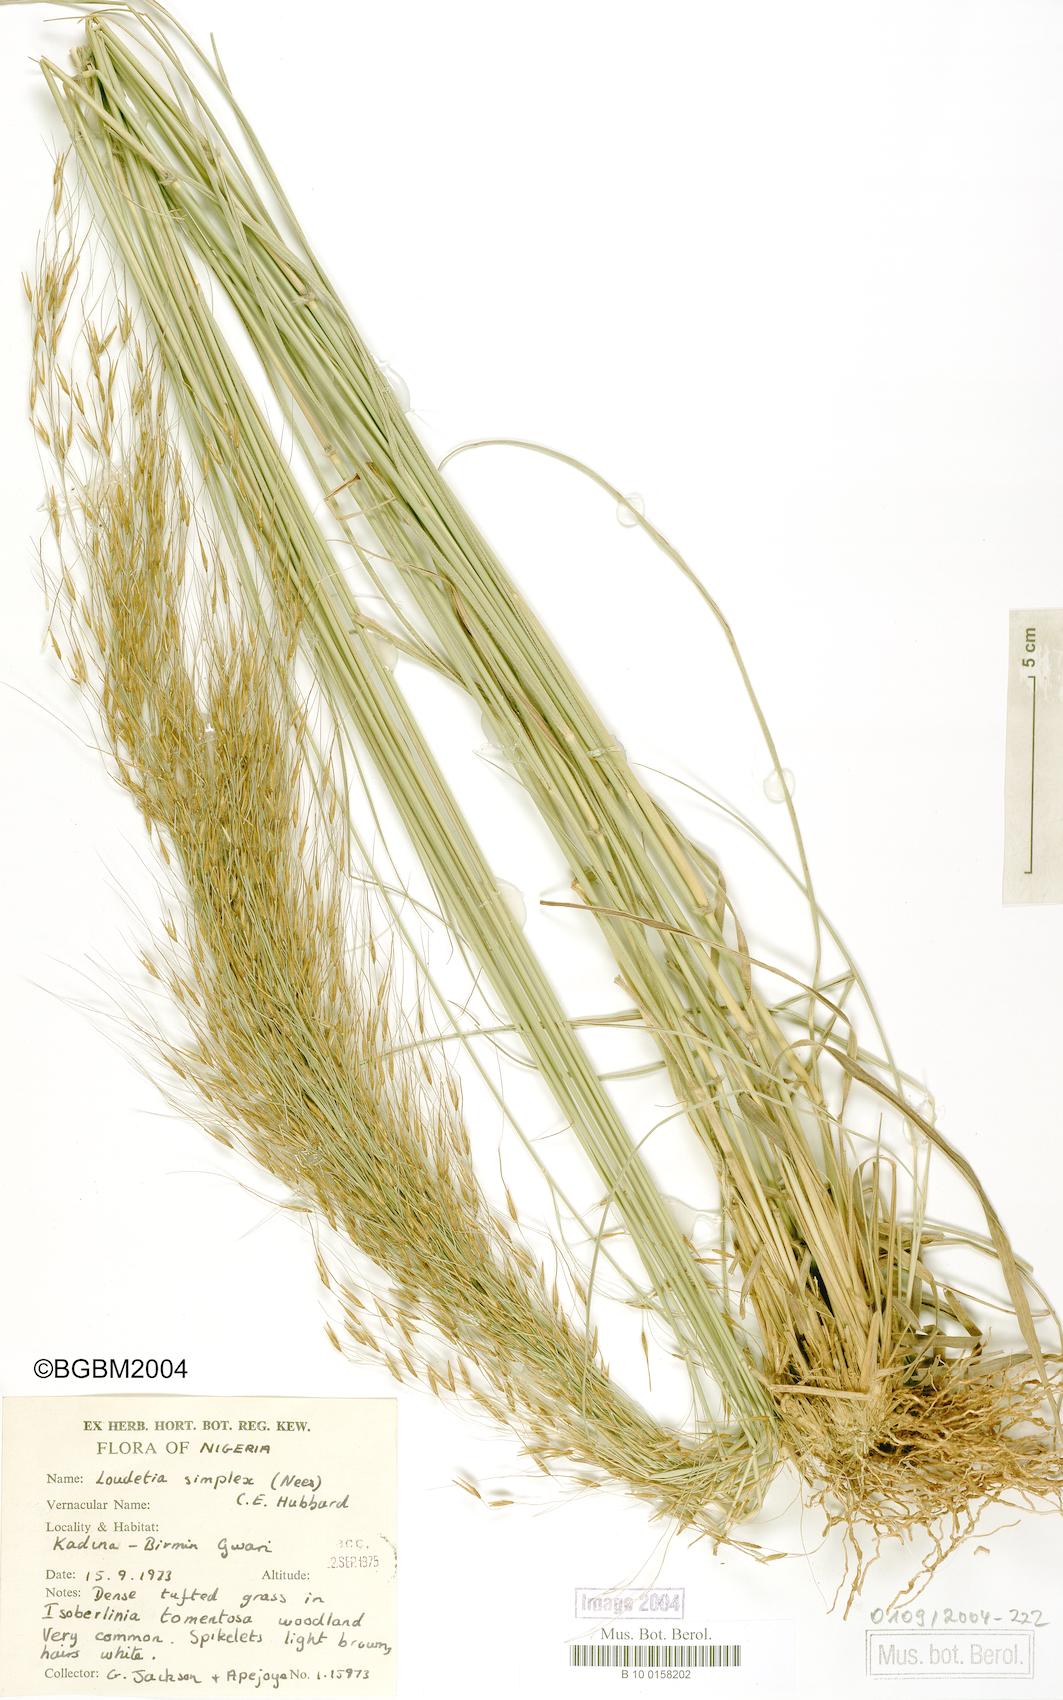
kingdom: Plantae
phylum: Tracheophyta
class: Liliopsida
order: Poales
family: Poaceae
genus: Loudetia
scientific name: Loudetia simplex
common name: Common russet grass
